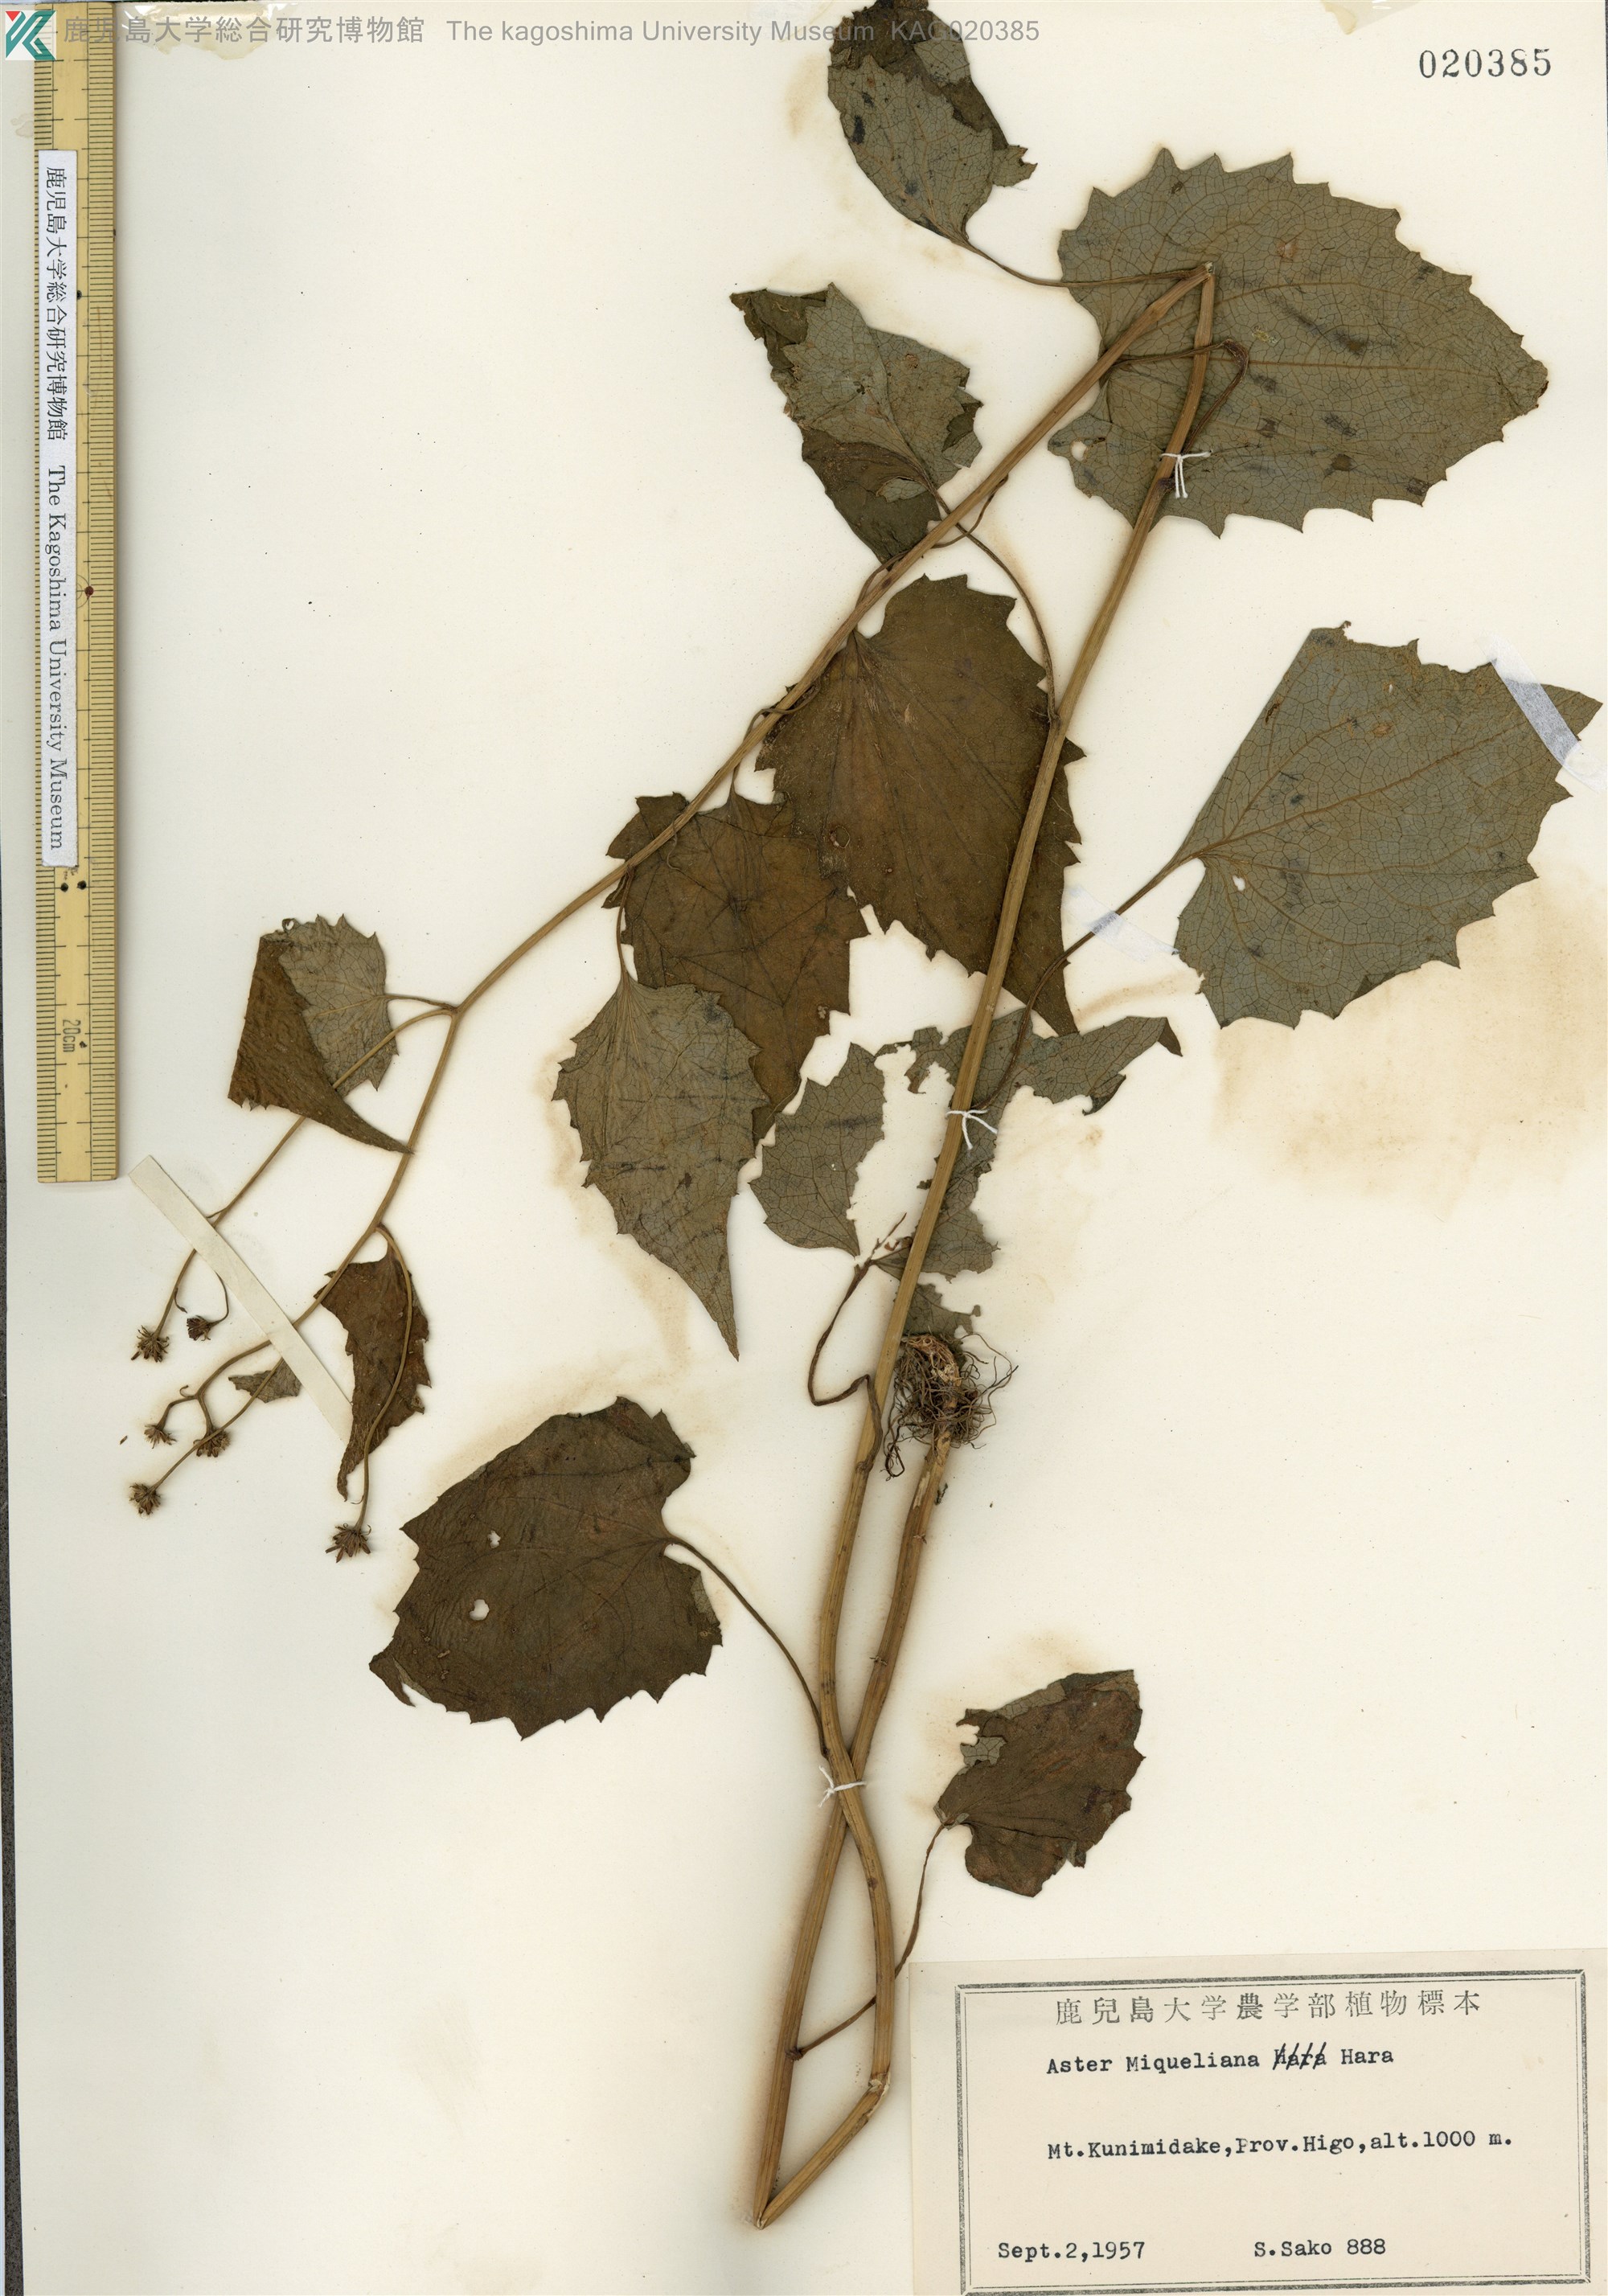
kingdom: Plantae
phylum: Tracheophyta
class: Magnoliopsida
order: Asterales
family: Asteraceae
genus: Cardiagyris
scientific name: Cardiagyris miquelianus
